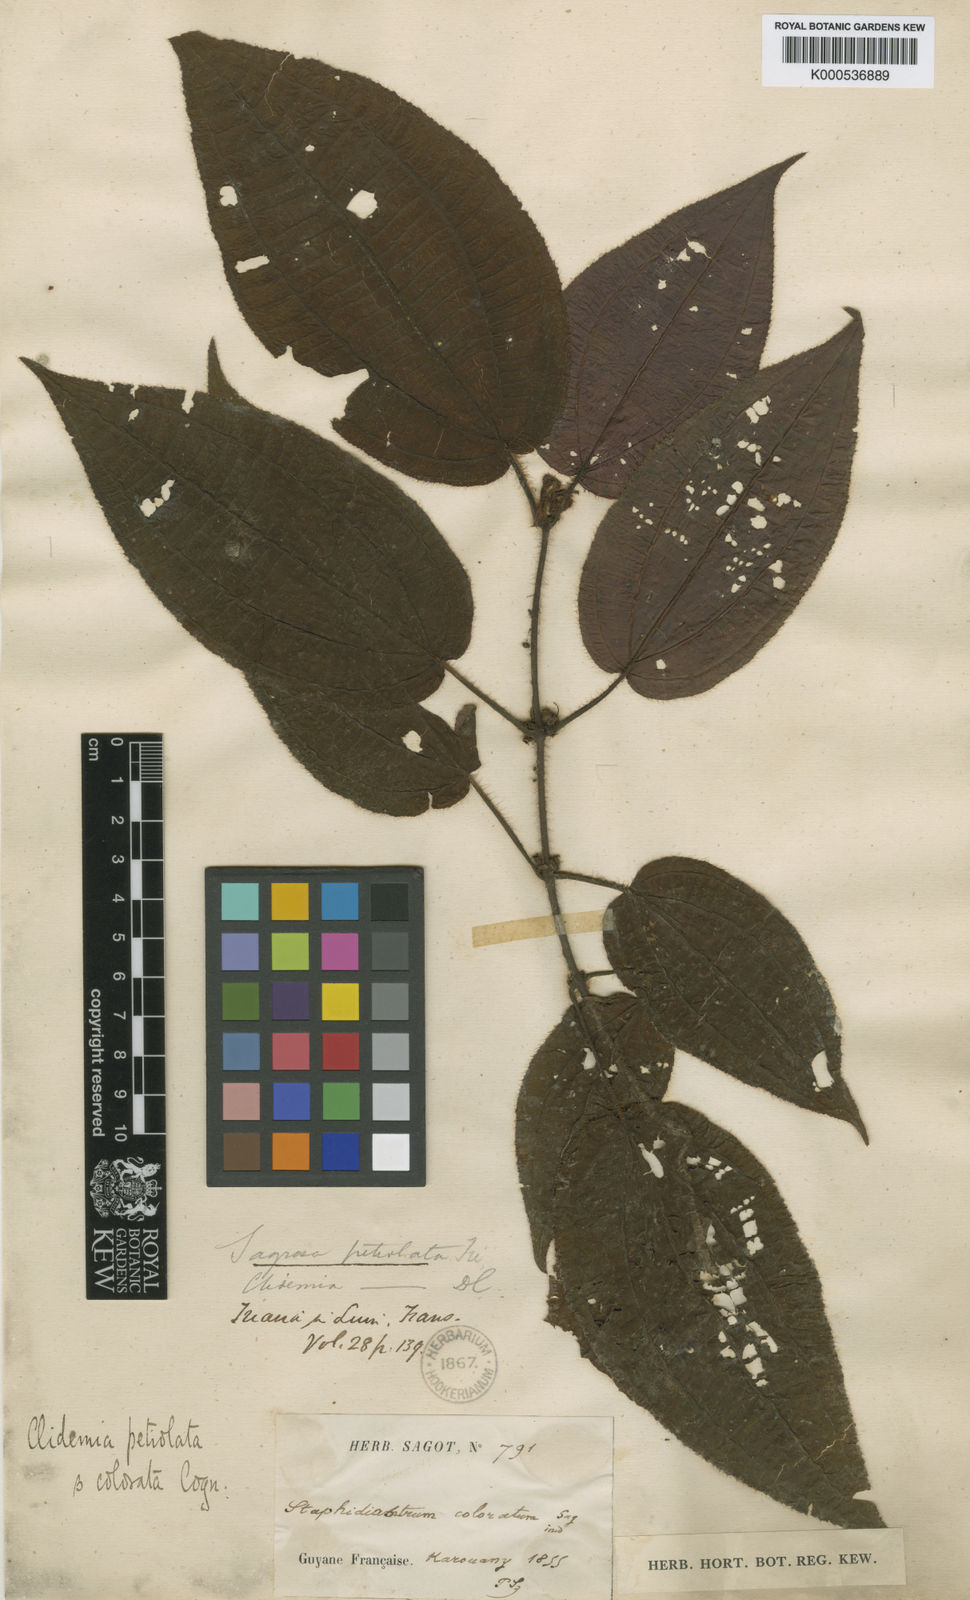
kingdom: Plantae
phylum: Tracheophyta
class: Magnoliopsida
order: Myrtales
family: Melastomataceae
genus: Miconia
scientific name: Miconia petiolata
